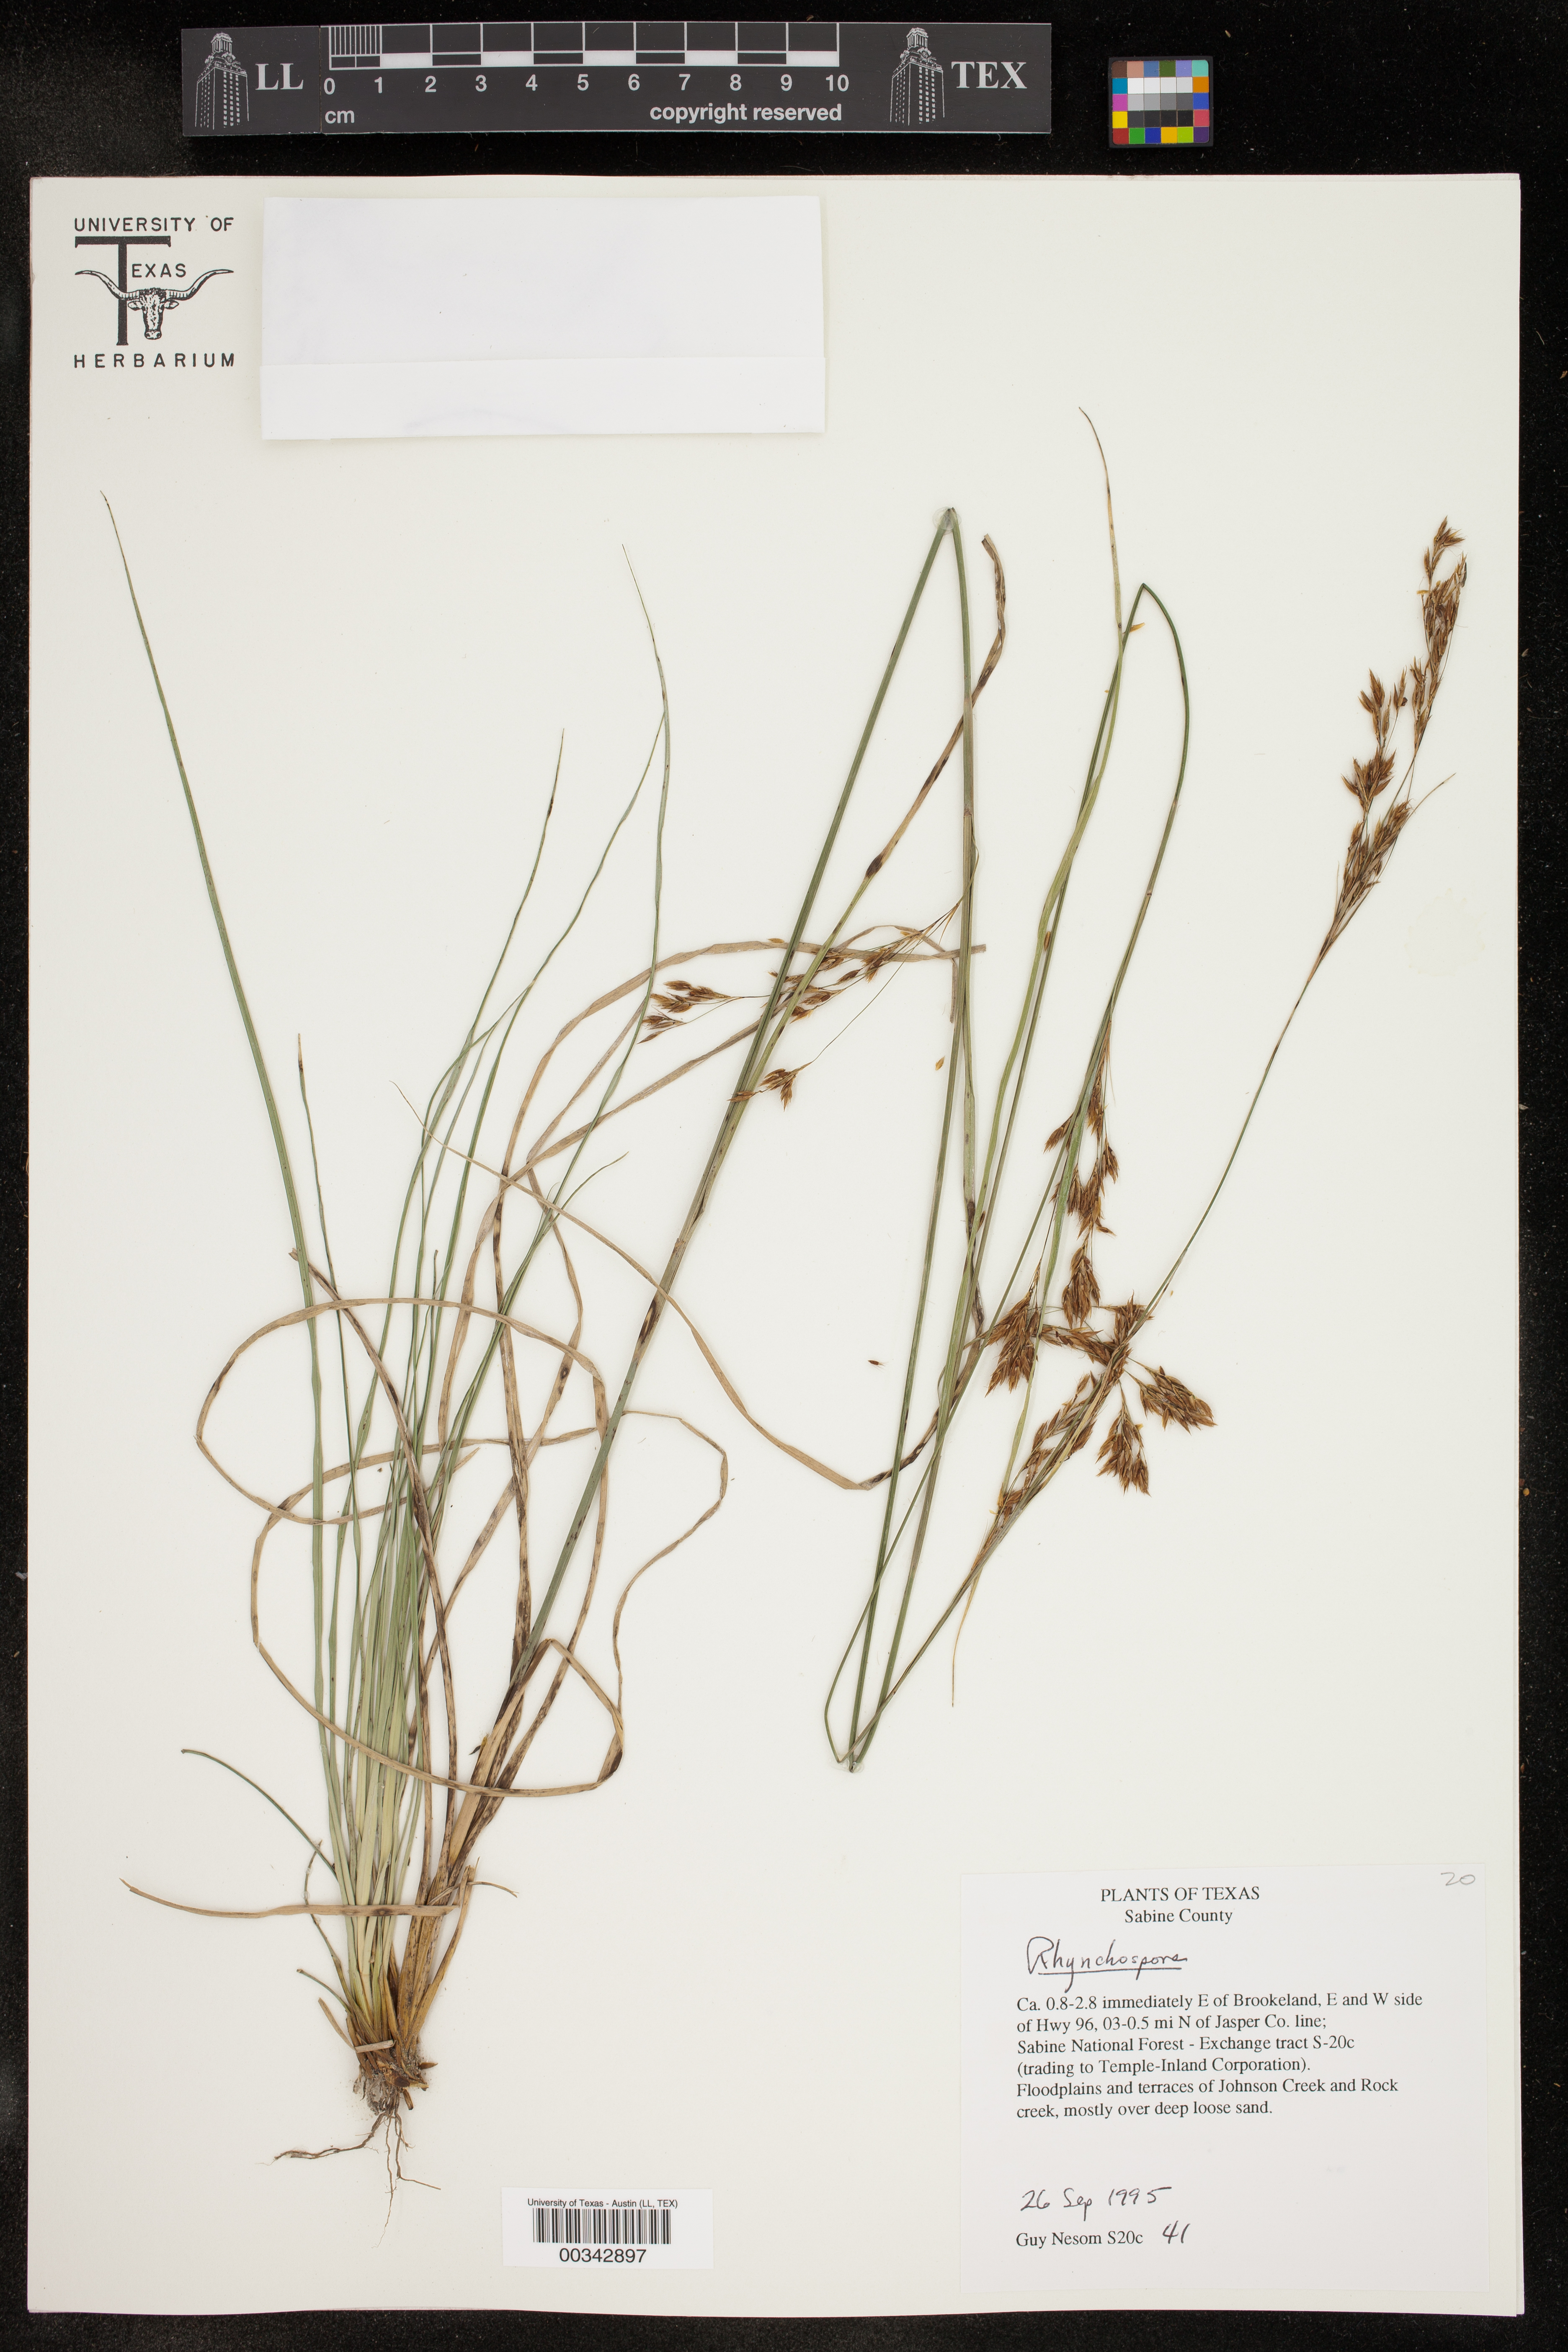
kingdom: Plantae
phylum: Tracheophyta
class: Liliopsida
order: Poales
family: Cyperaceae
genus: Rhynchospora
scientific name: Rhynchospora
